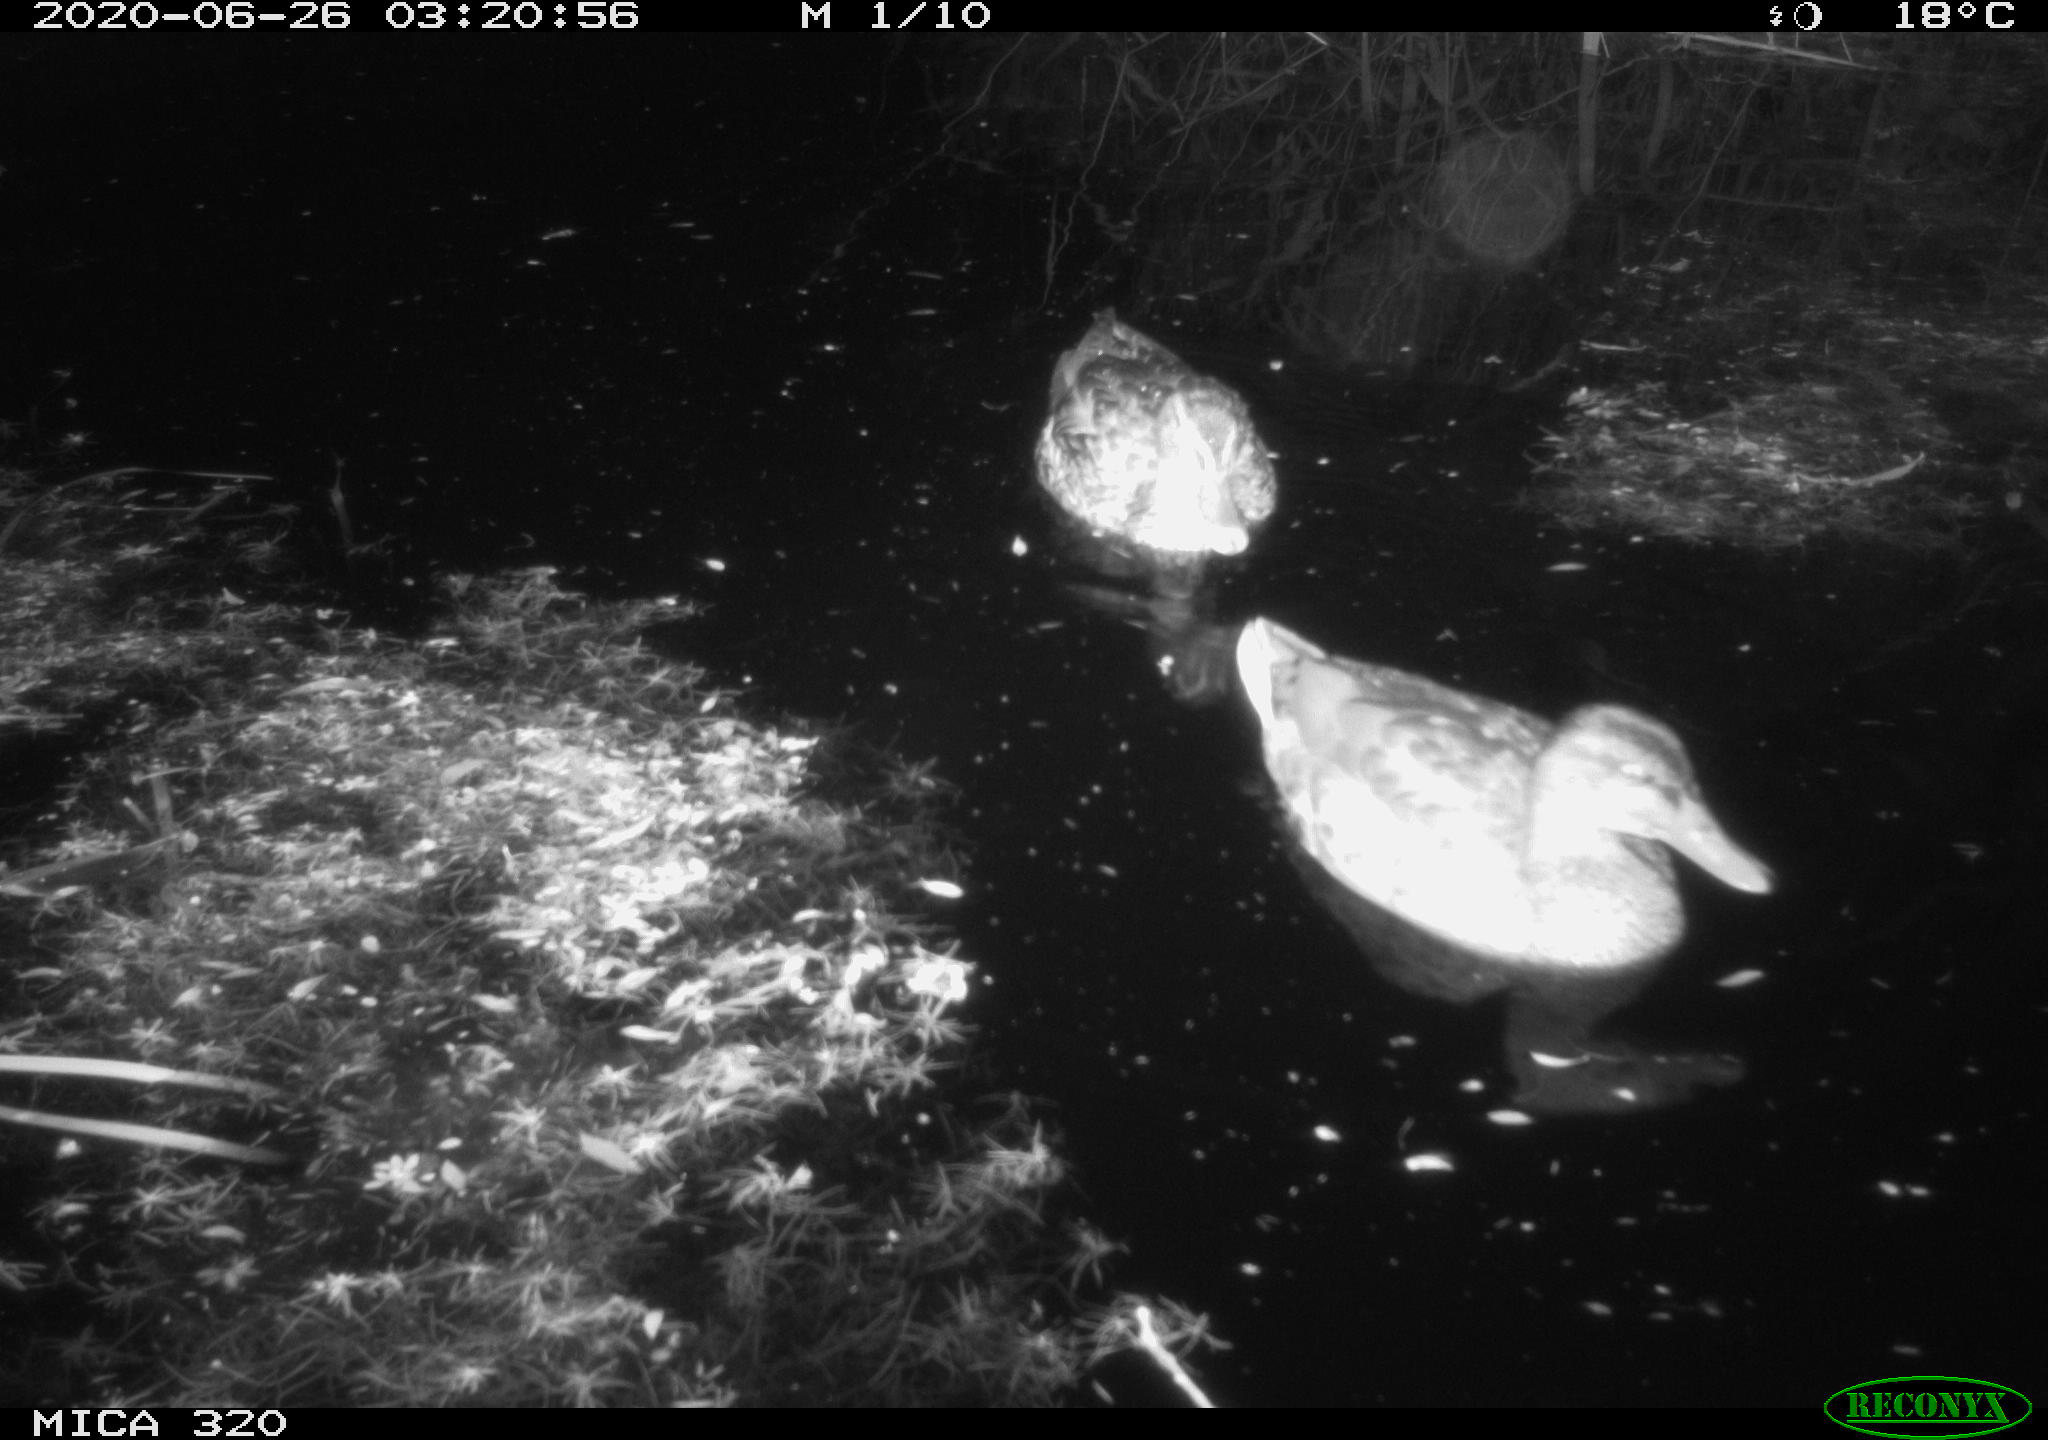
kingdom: Animalia
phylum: Chordata
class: Aves
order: Anseriformes
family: Anatidae
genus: Anas
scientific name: Anas platyrhynchos
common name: Mallard
